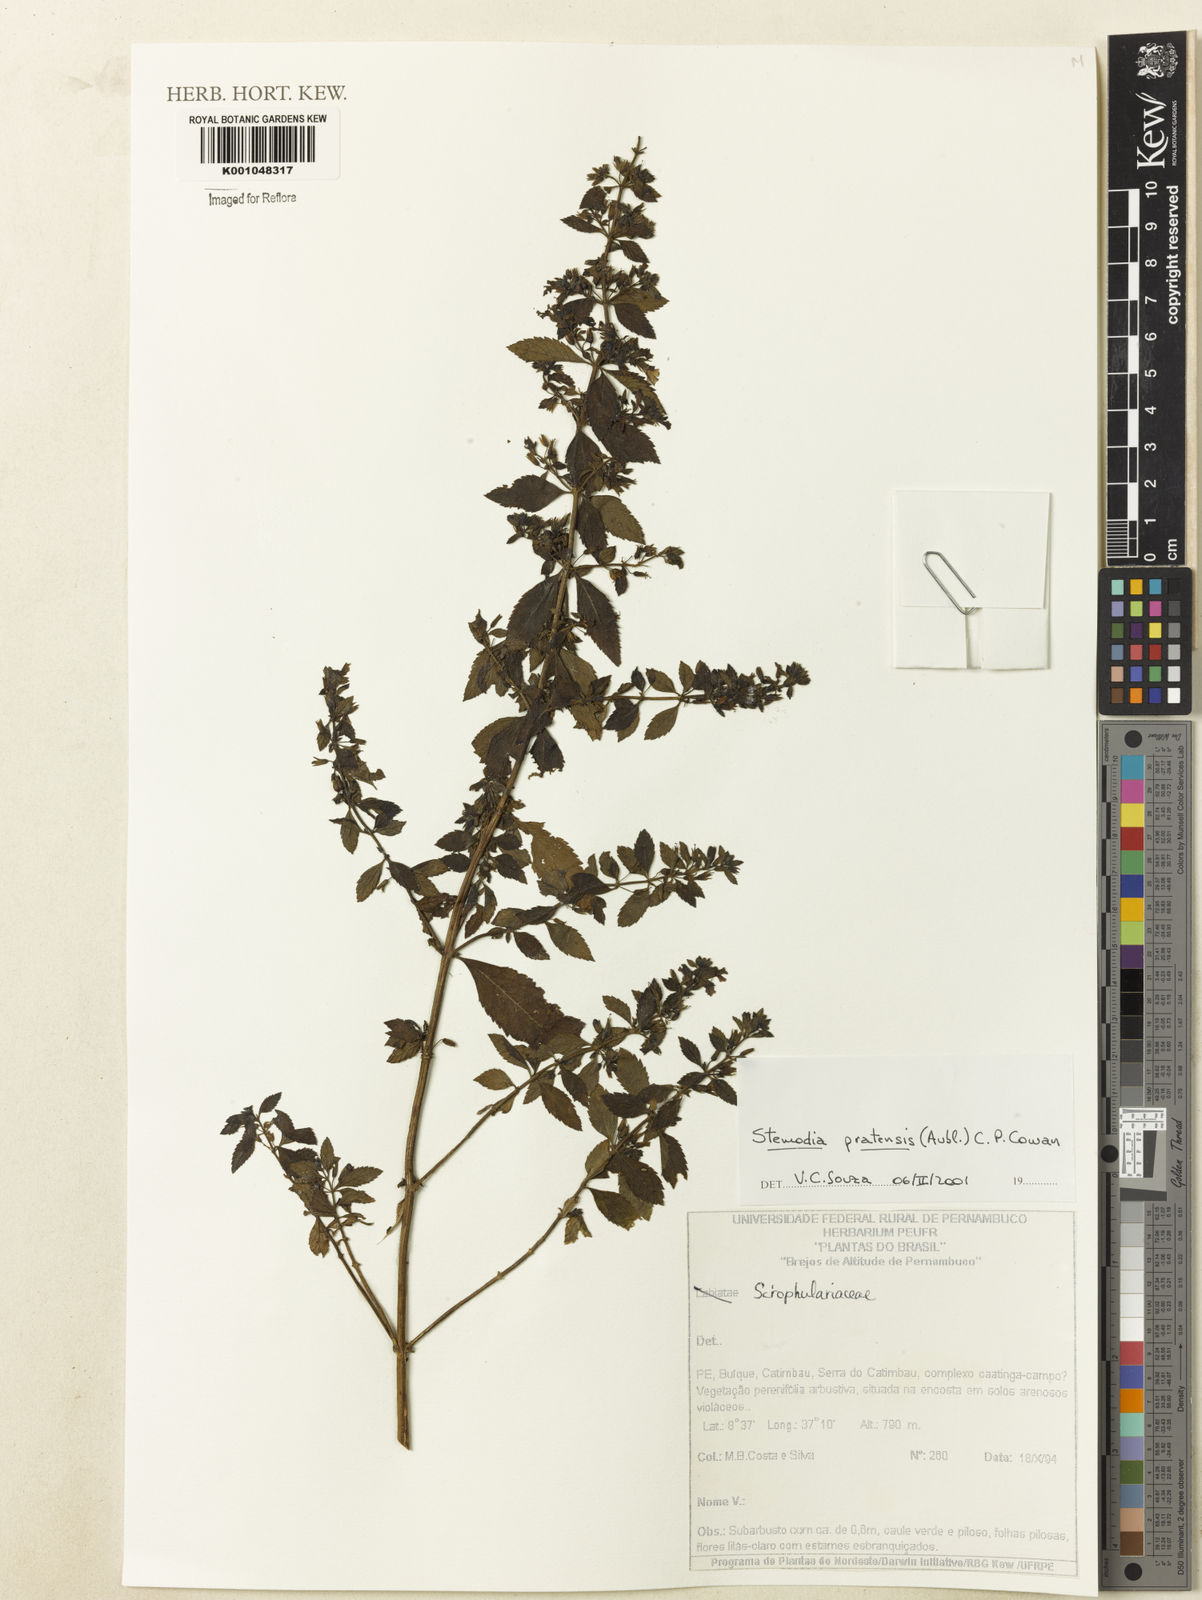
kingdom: Plantae
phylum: Tracheophyta
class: Magnoliopsida
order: Lamiales
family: Plantaginaceae
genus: Stemodia
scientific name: Stemodia foliosa
